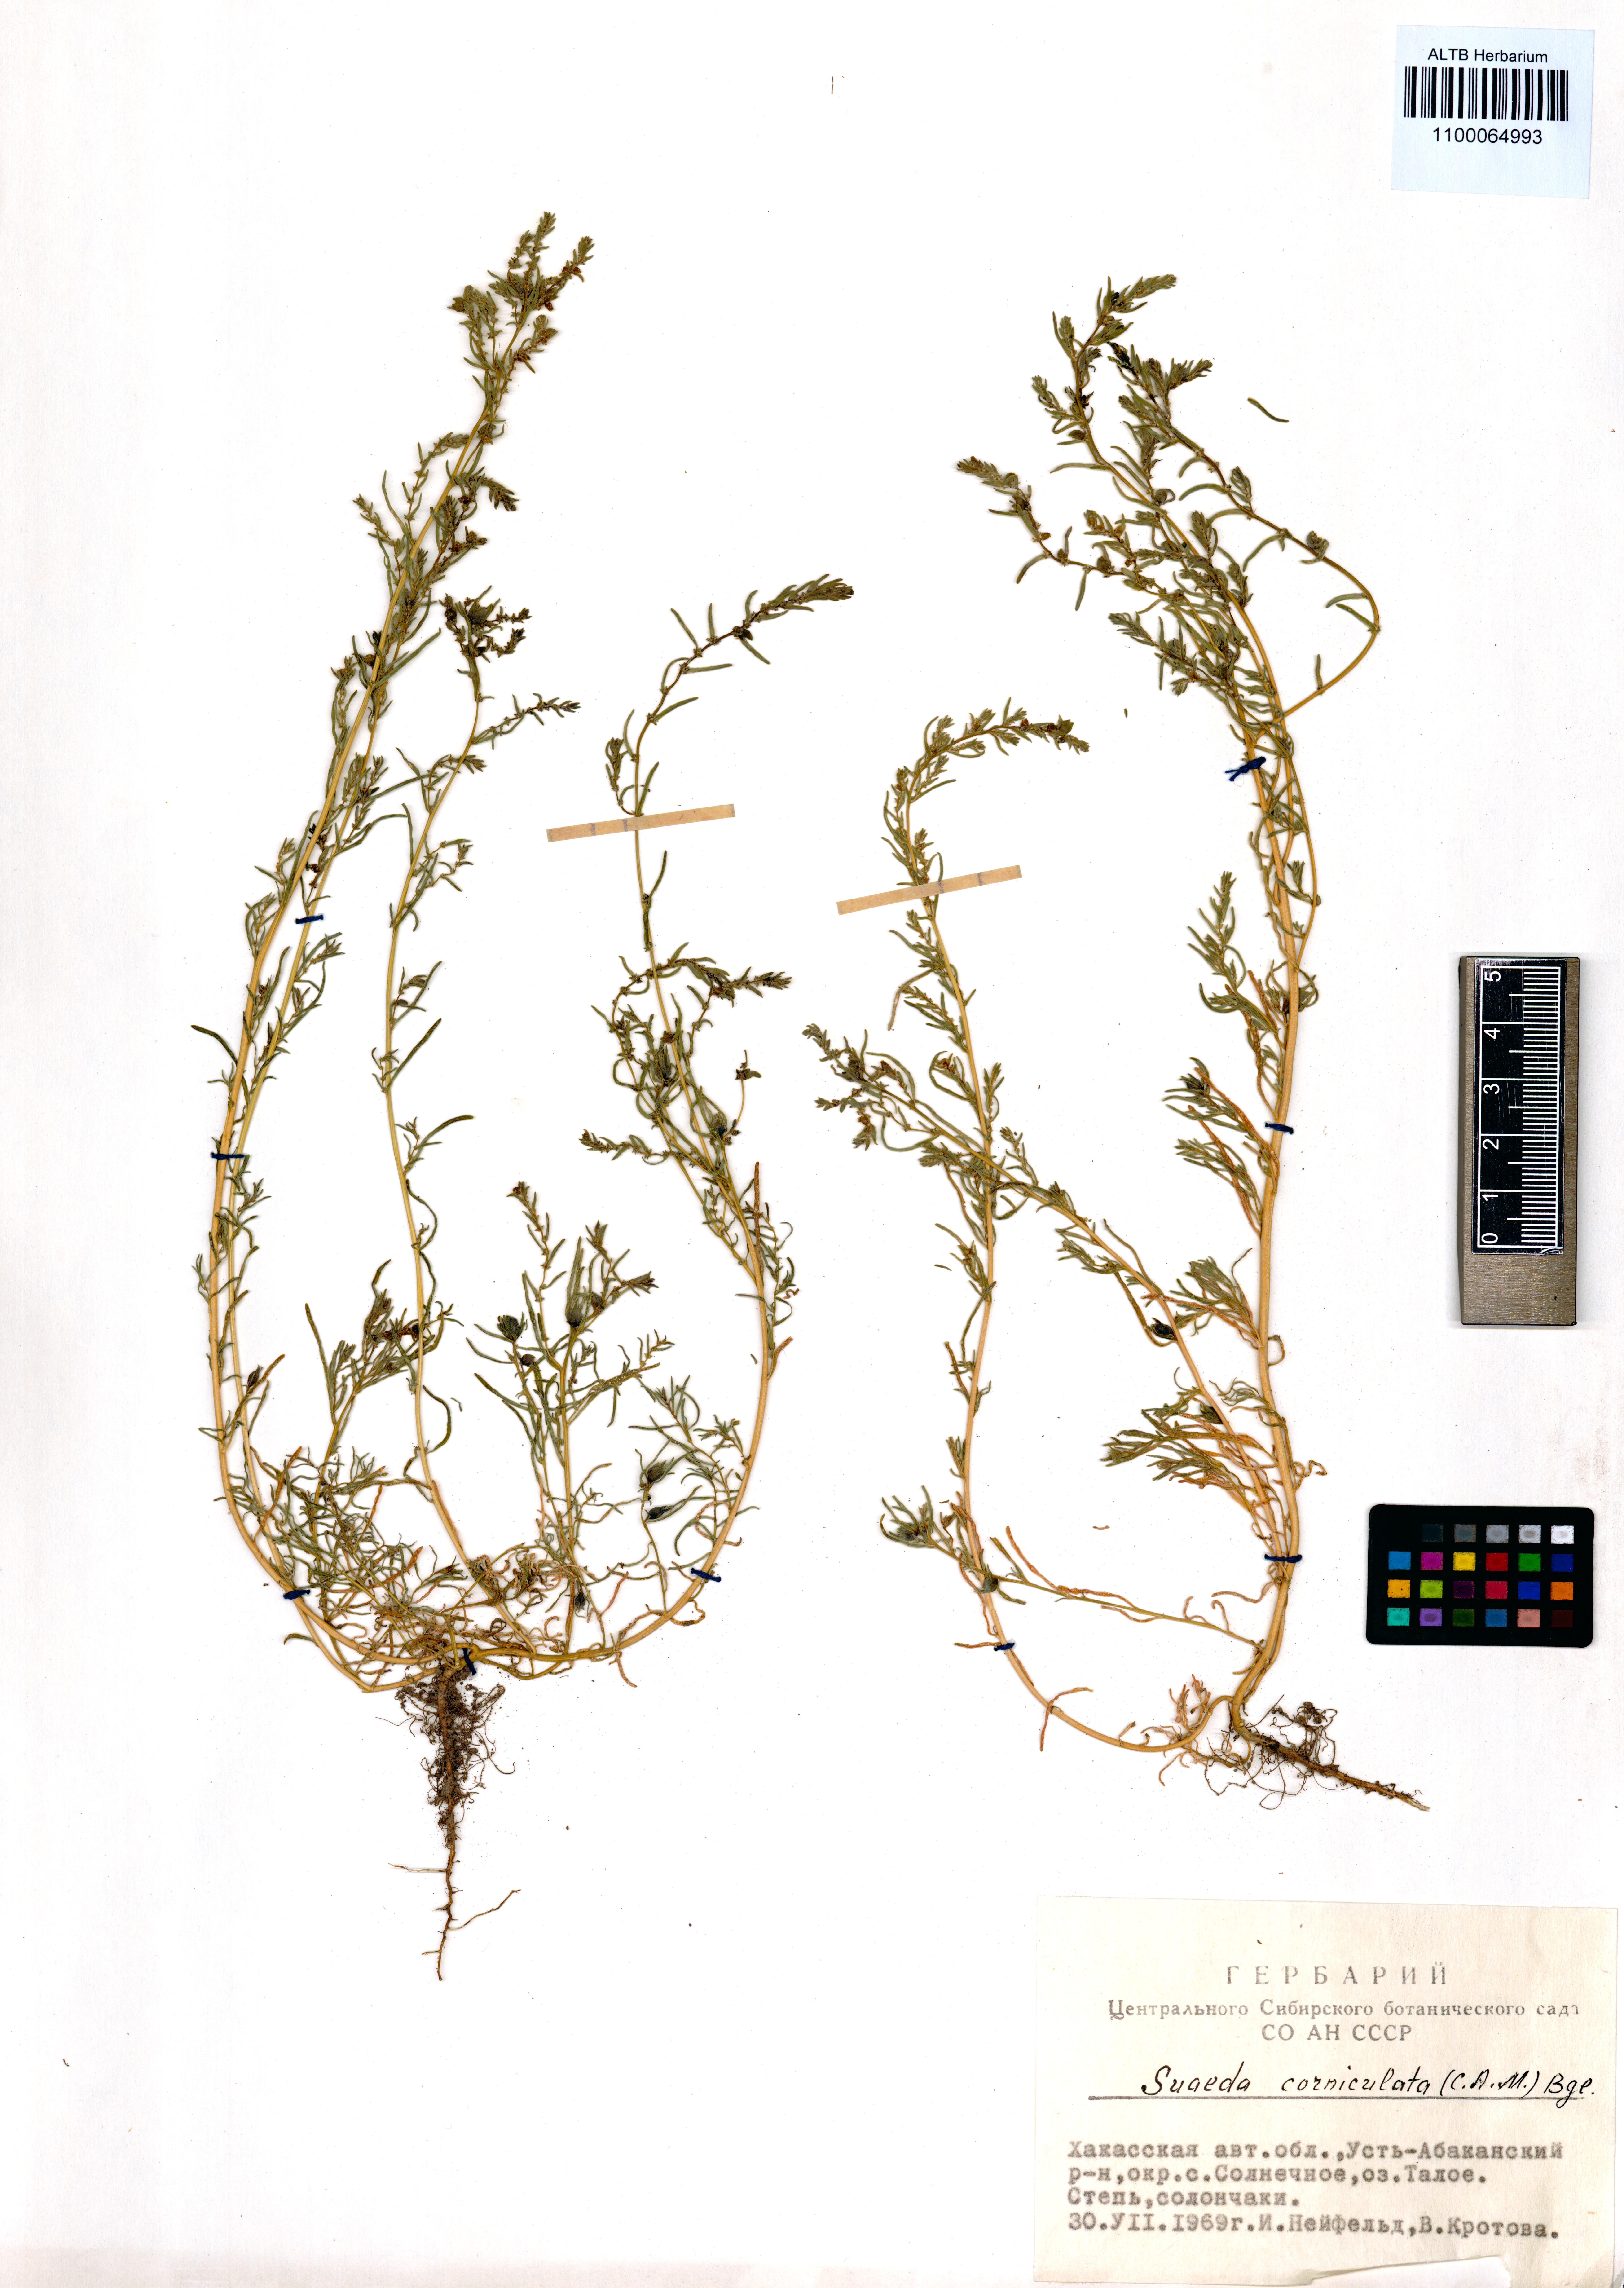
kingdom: Plantae
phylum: Tracheophyta
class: Magnoliopsida
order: Caryophyllales
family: Amaranthaceae
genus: Suaeda
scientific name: Suaeda corniculata
